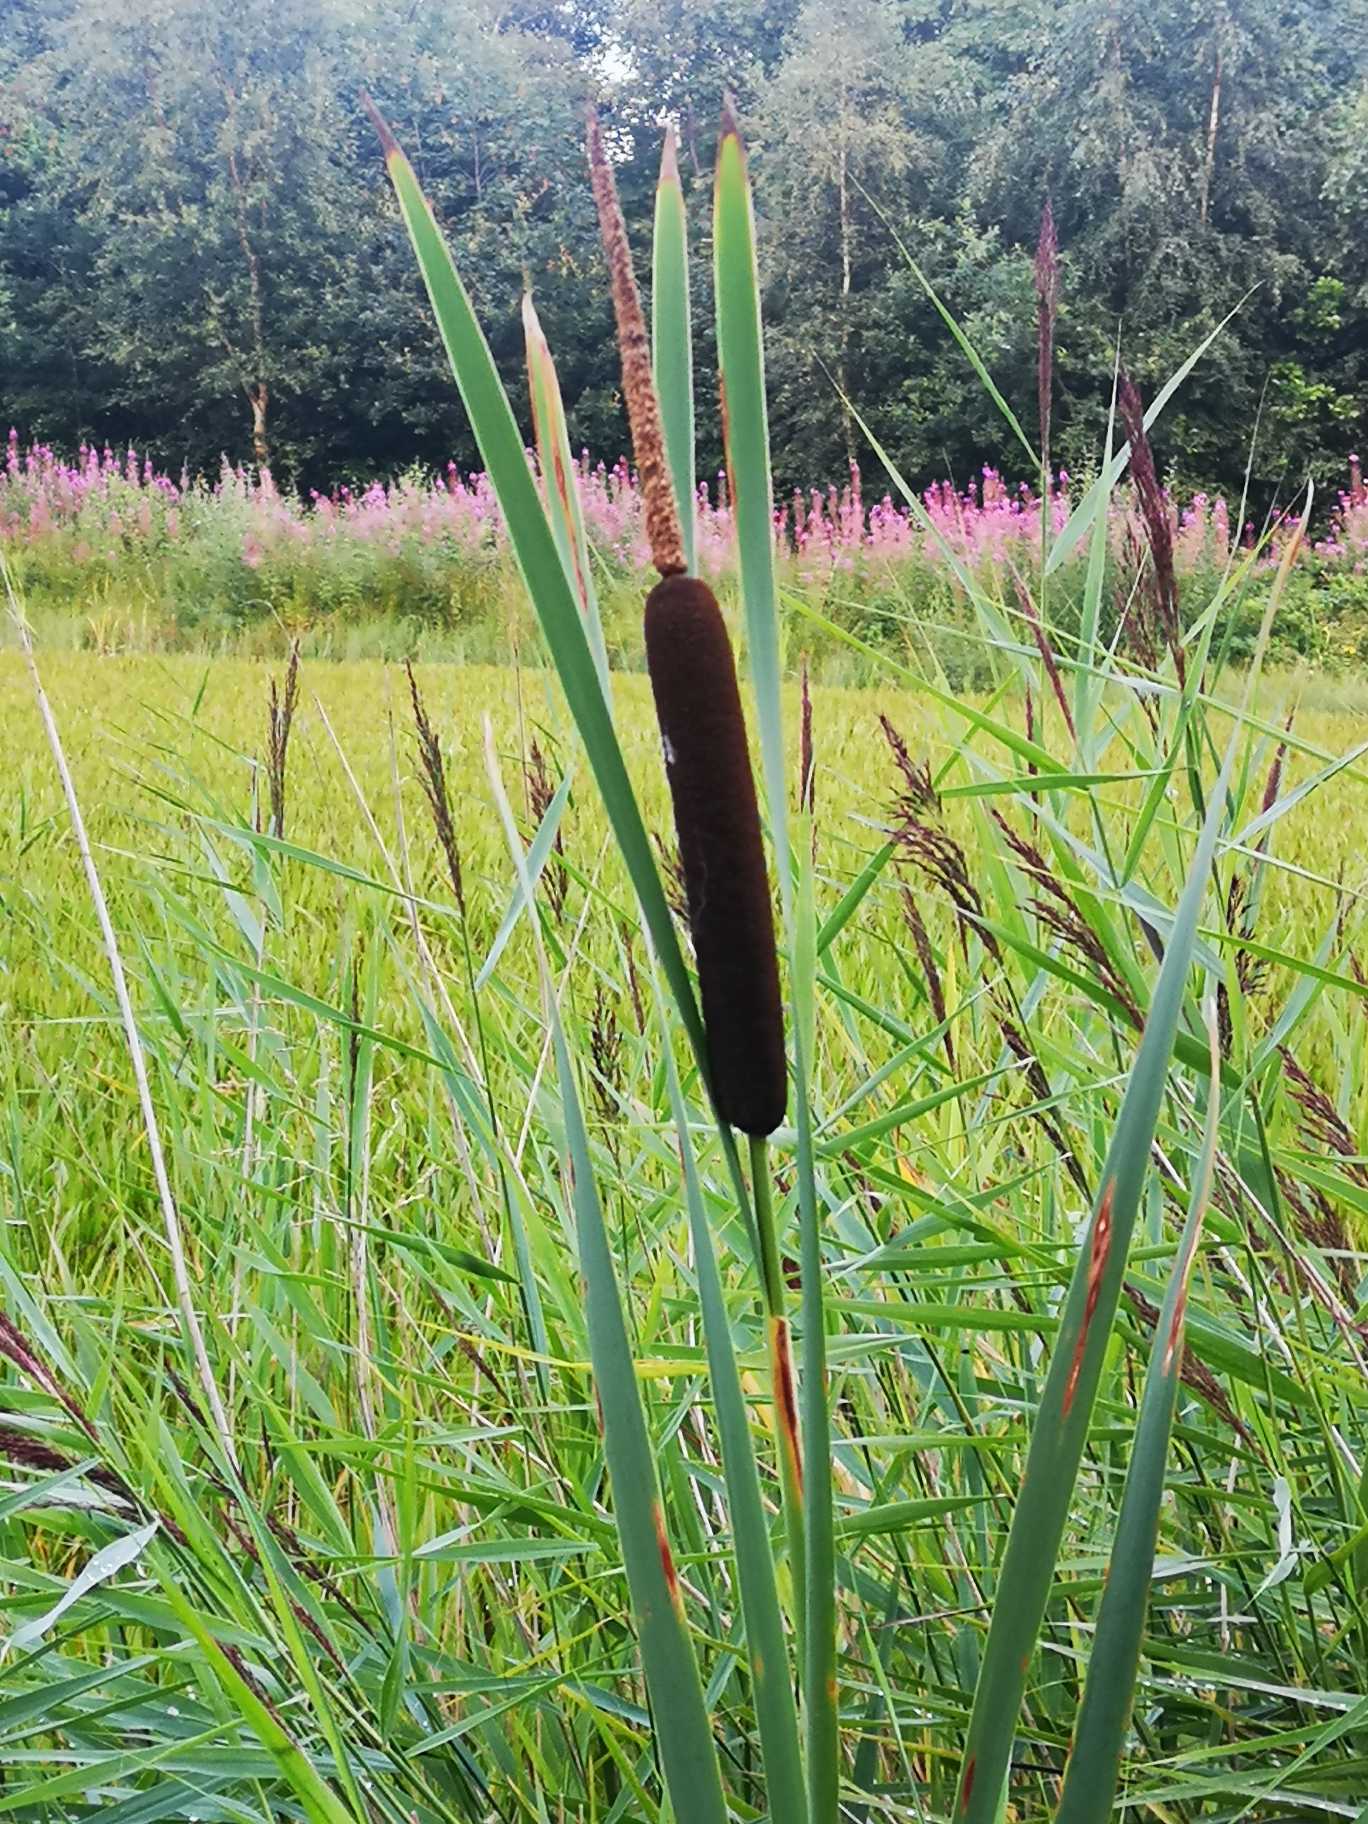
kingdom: Plantae
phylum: Tracheophyta
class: Liliopsida
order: Poales
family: Typhaceae
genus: Typha
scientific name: Typha latifolia
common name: Bredbladet dunhammer
